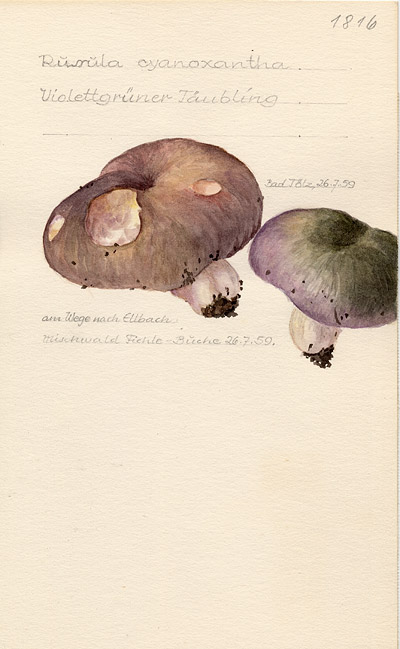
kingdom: Fungi
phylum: Basidiomycota
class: Agaricomycetes
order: Russulales
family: Russulaceae
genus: Russula
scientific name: Russula cyanoxantha
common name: Charcoal burner
